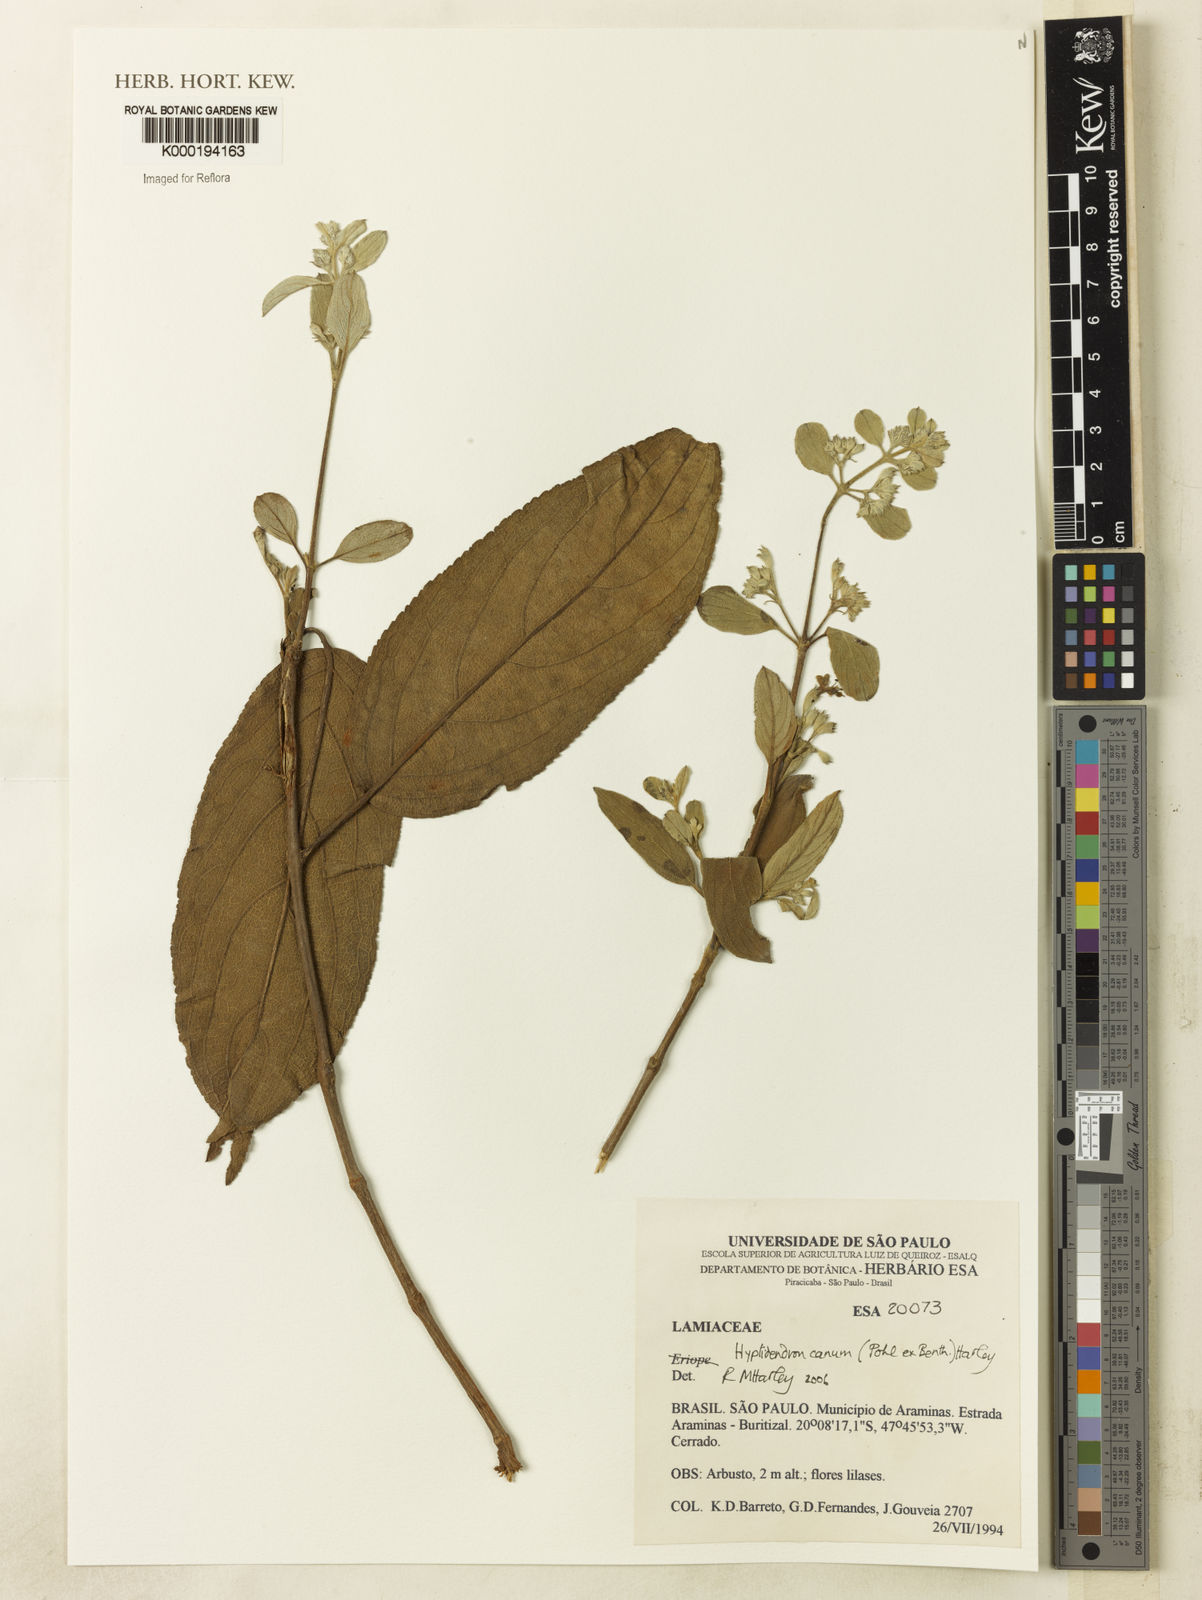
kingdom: Plantae
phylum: Tracheophyta
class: Magnoliopsida
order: Lamiales
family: Lamiaceae
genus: Hyptidendron
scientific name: Hyptidendron canum
